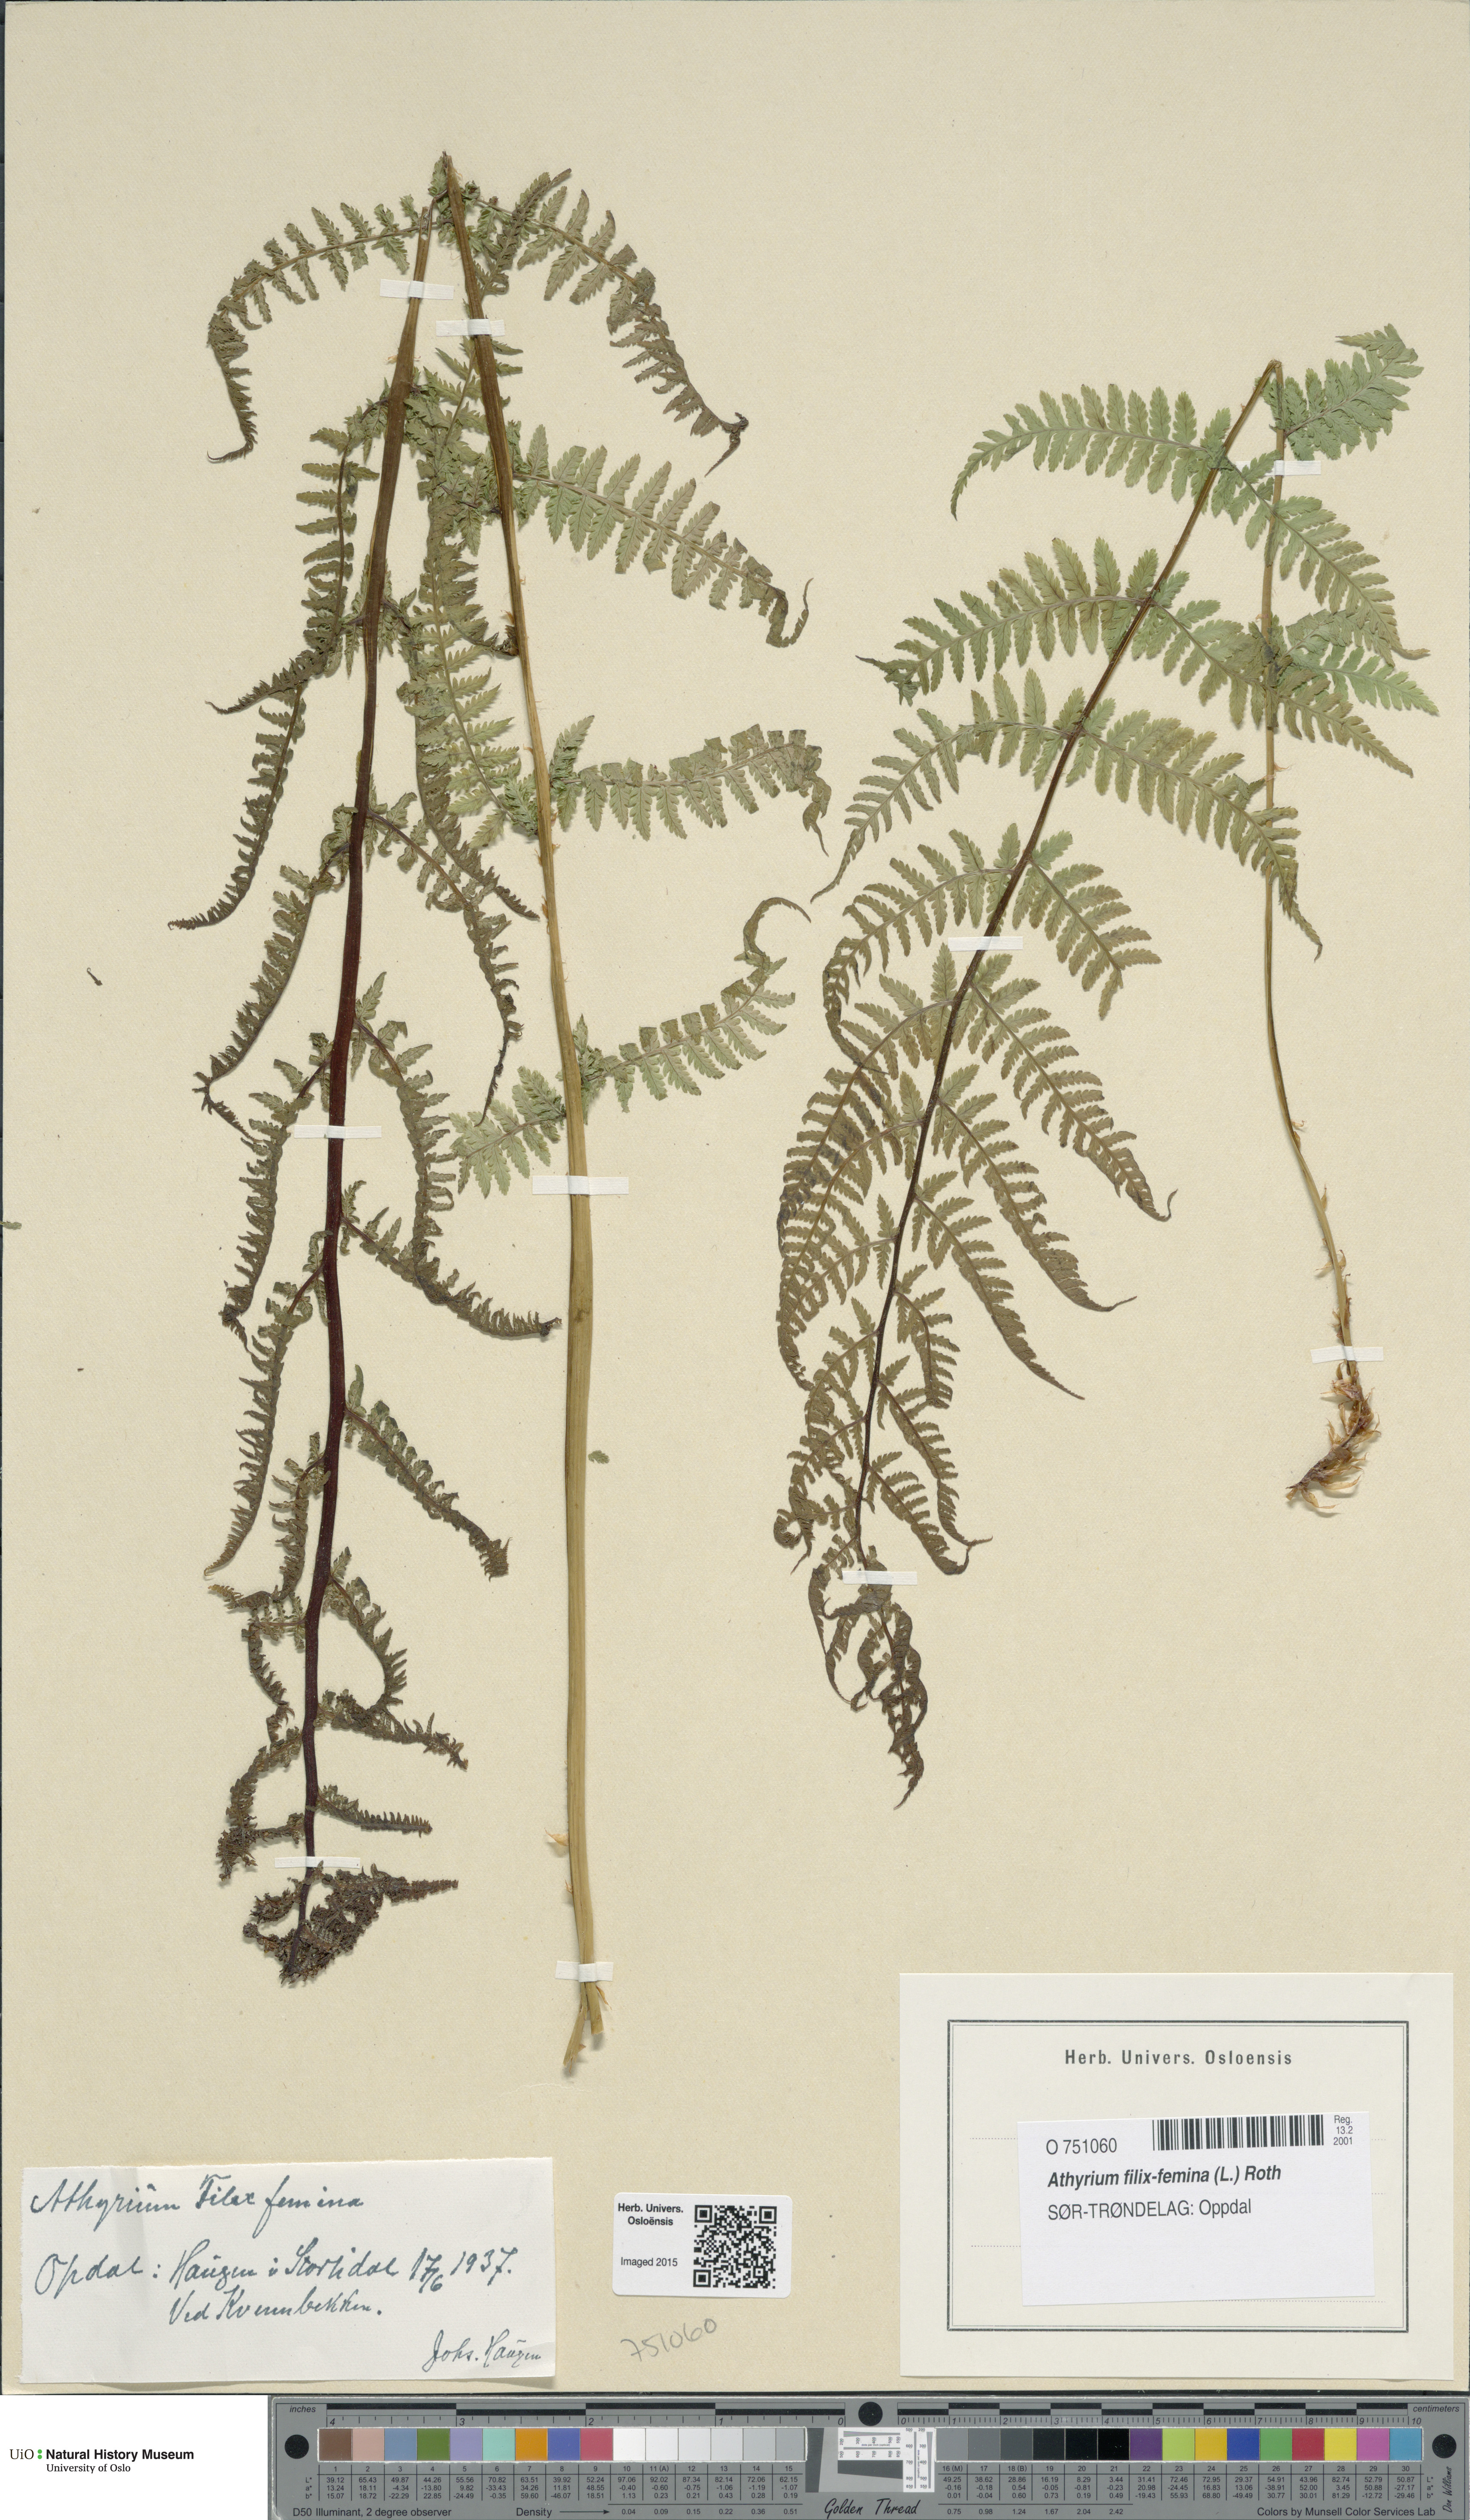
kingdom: Plantae
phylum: Tracheophyta
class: Polypodiopsida
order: Polypodiales
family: Athyriaceae
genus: Athyrium
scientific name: Athyrium filix-femina
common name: Lady fern
